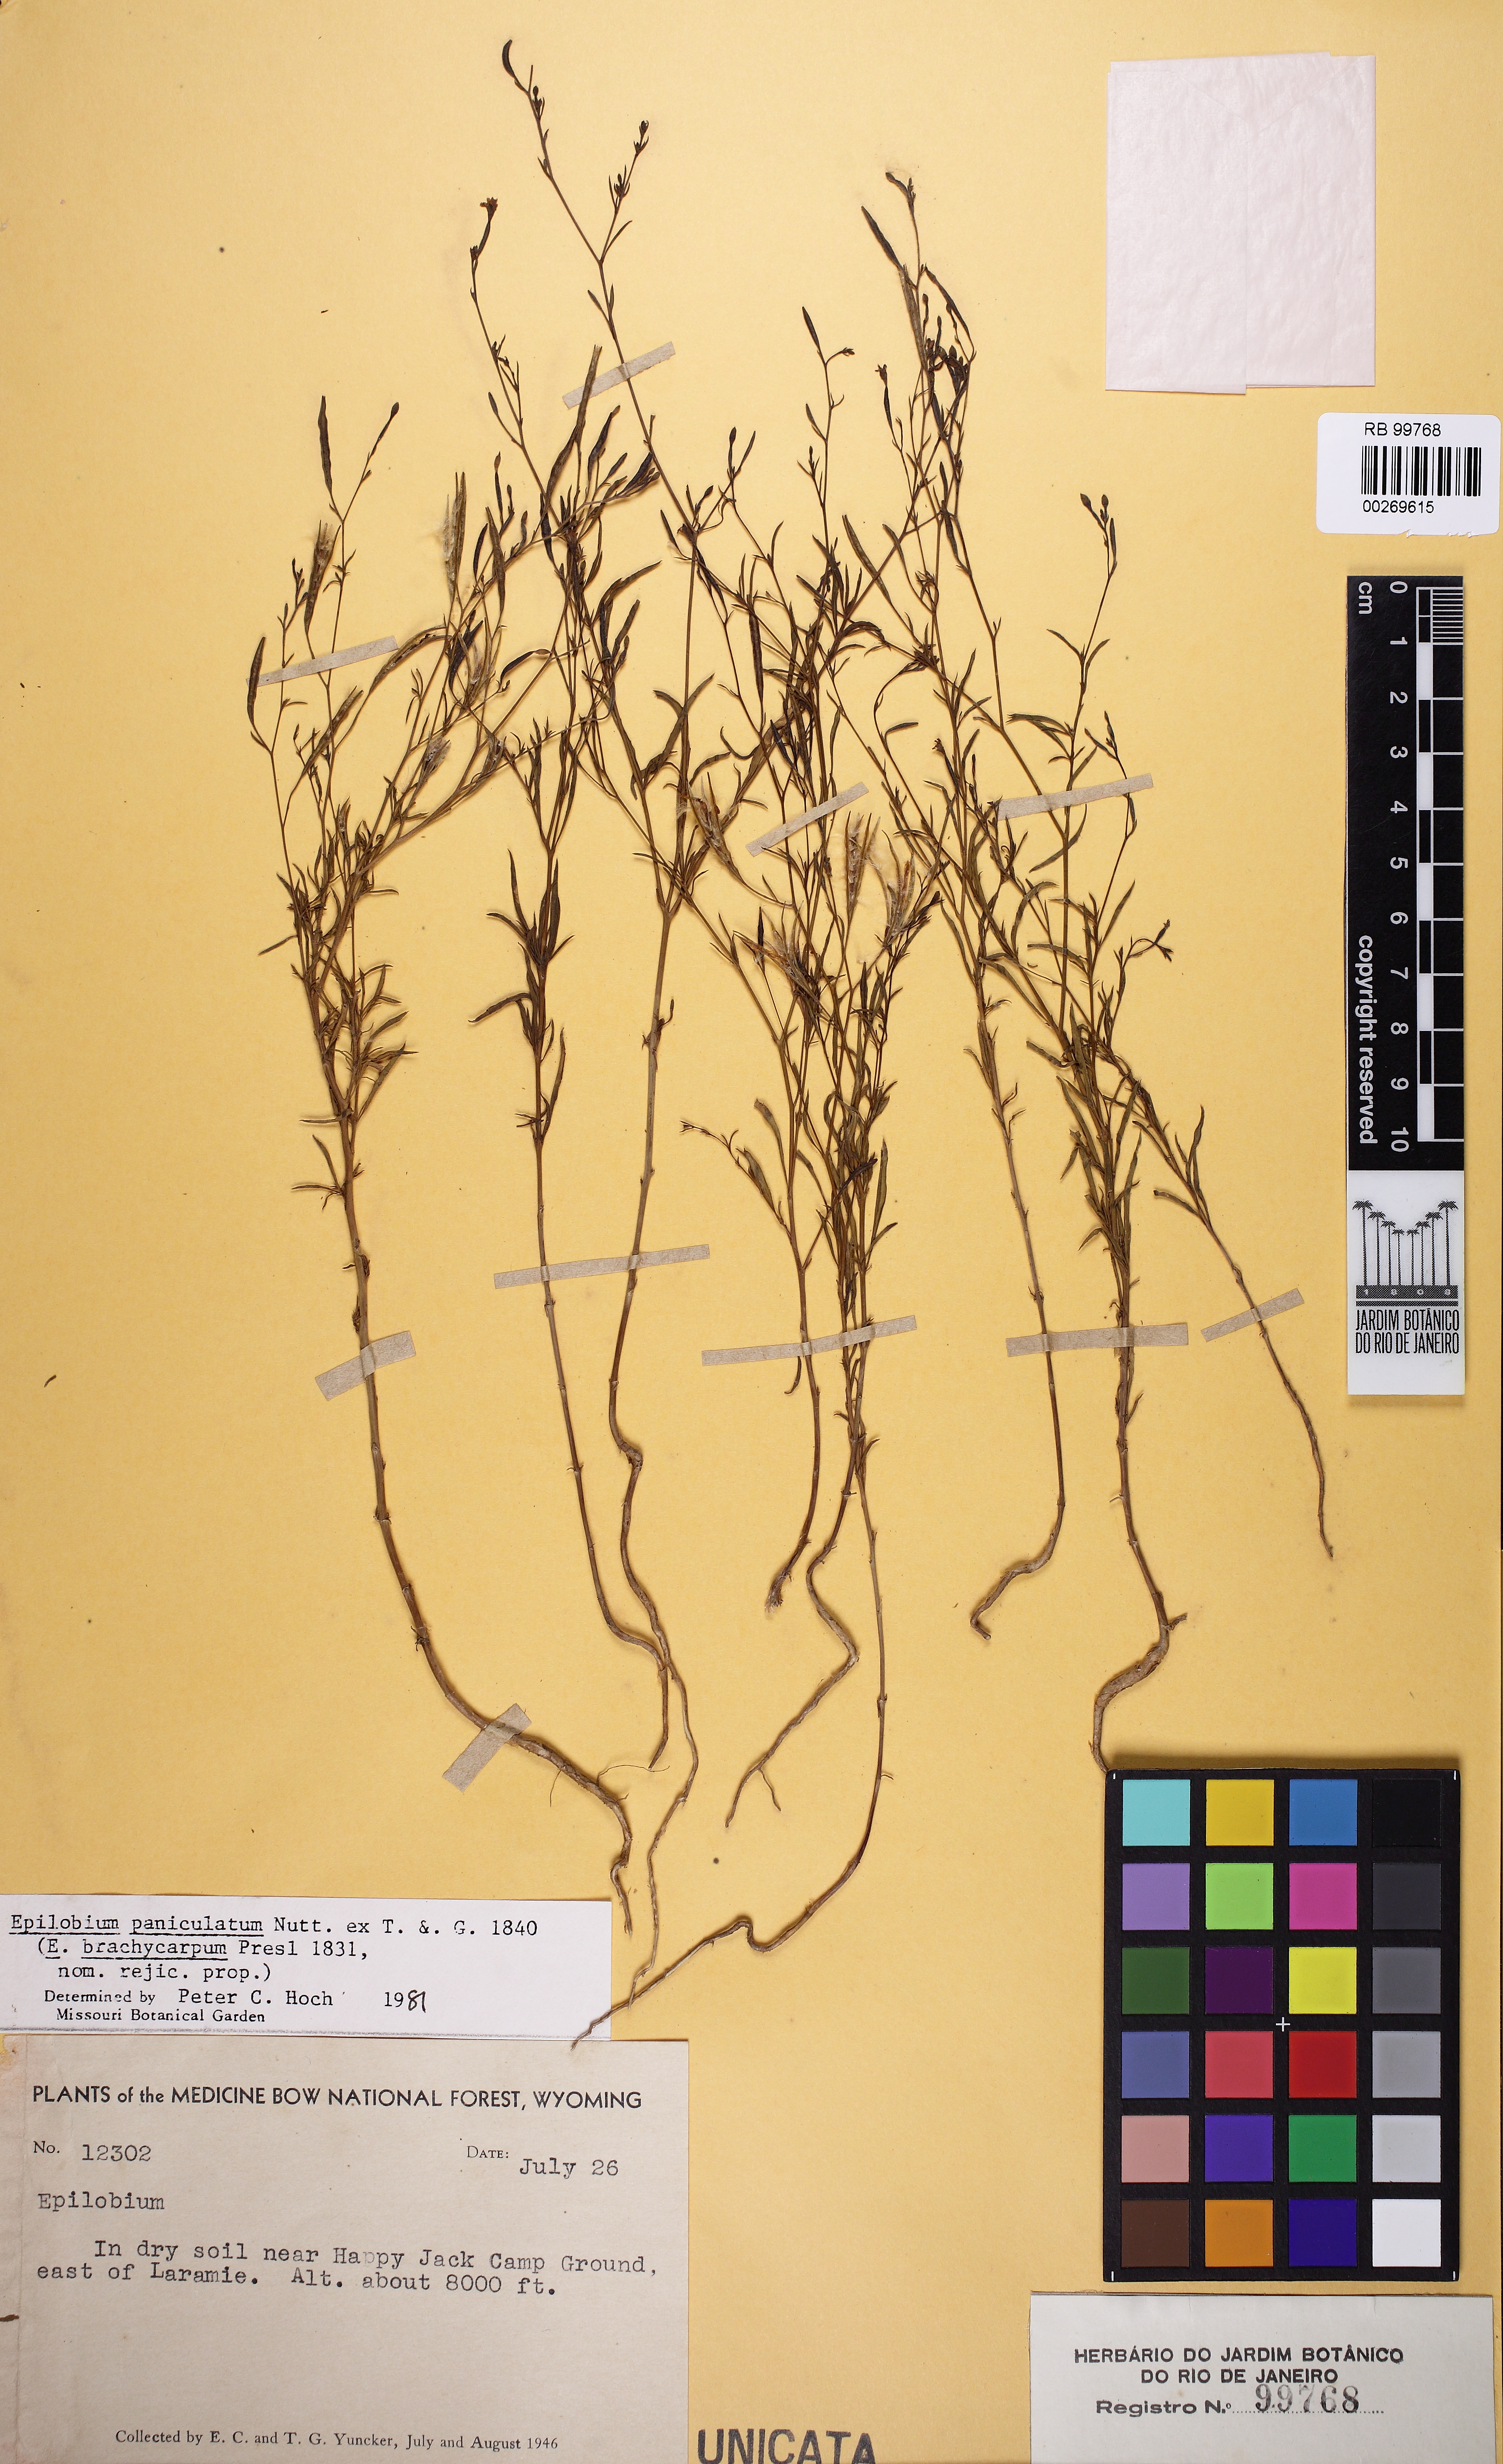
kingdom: Plantae
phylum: Tracheophyta
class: Magnoliopsida
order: Myrtales
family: Onagraceae
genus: Epilobium
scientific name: Epilobium brachycarpum
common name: Annual willowherb
